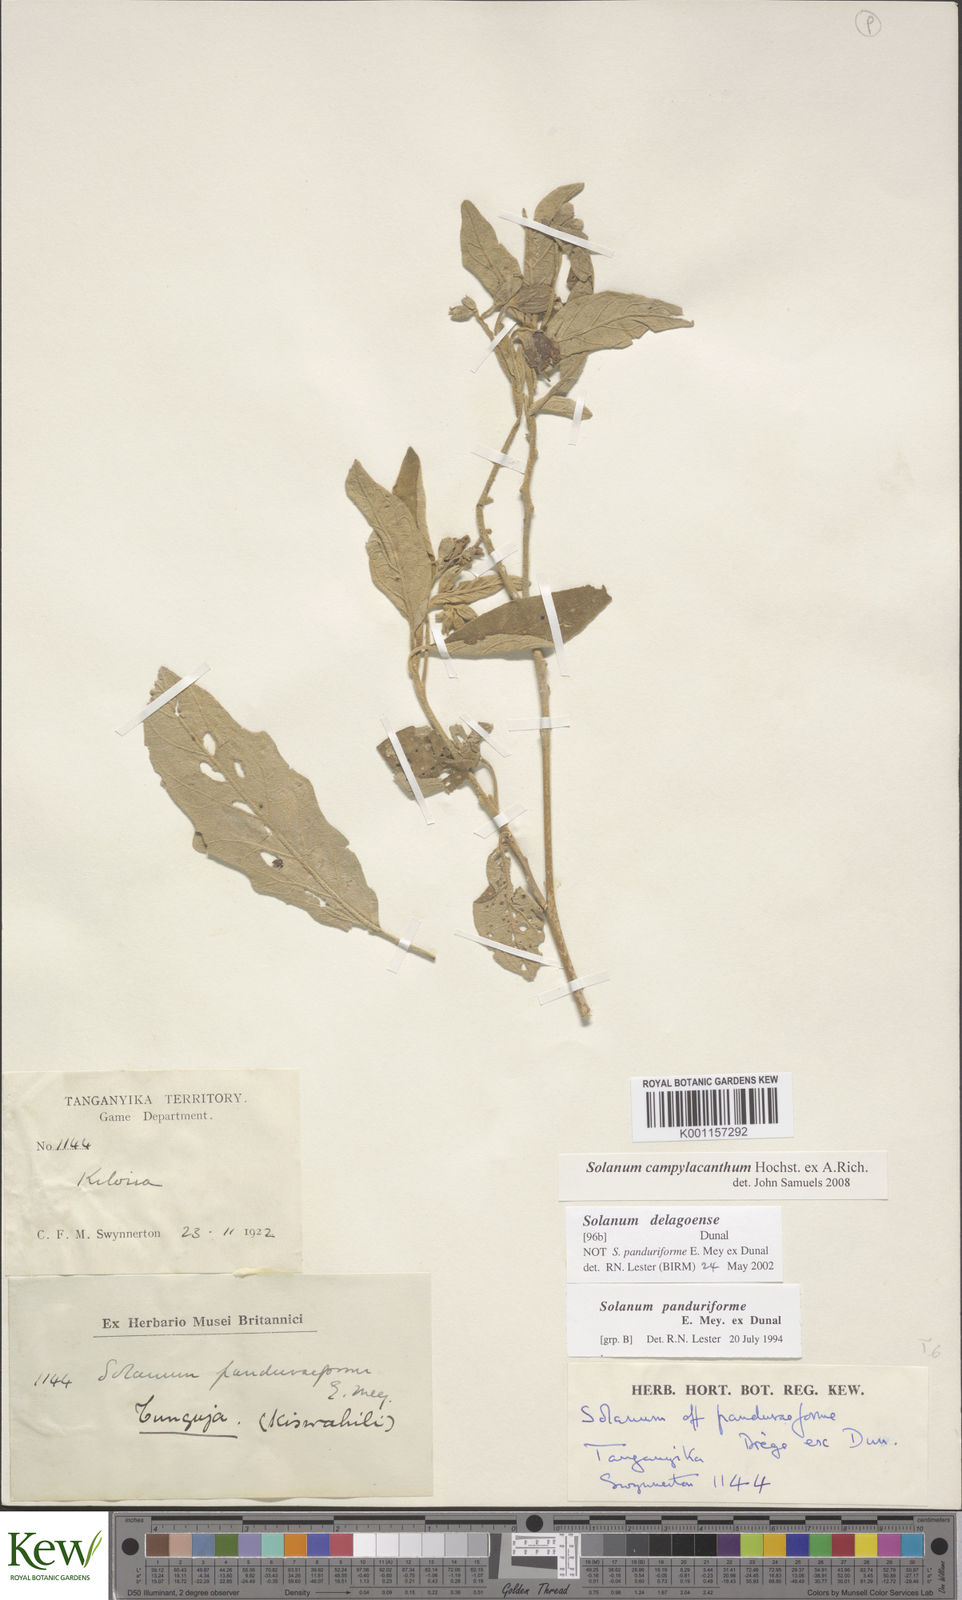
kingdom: Plantae
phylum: Tracheophyta
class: Magnoliopsida
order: Solanales
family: Solanaceae
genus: Solanum
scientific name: Solanum campylacanthum
